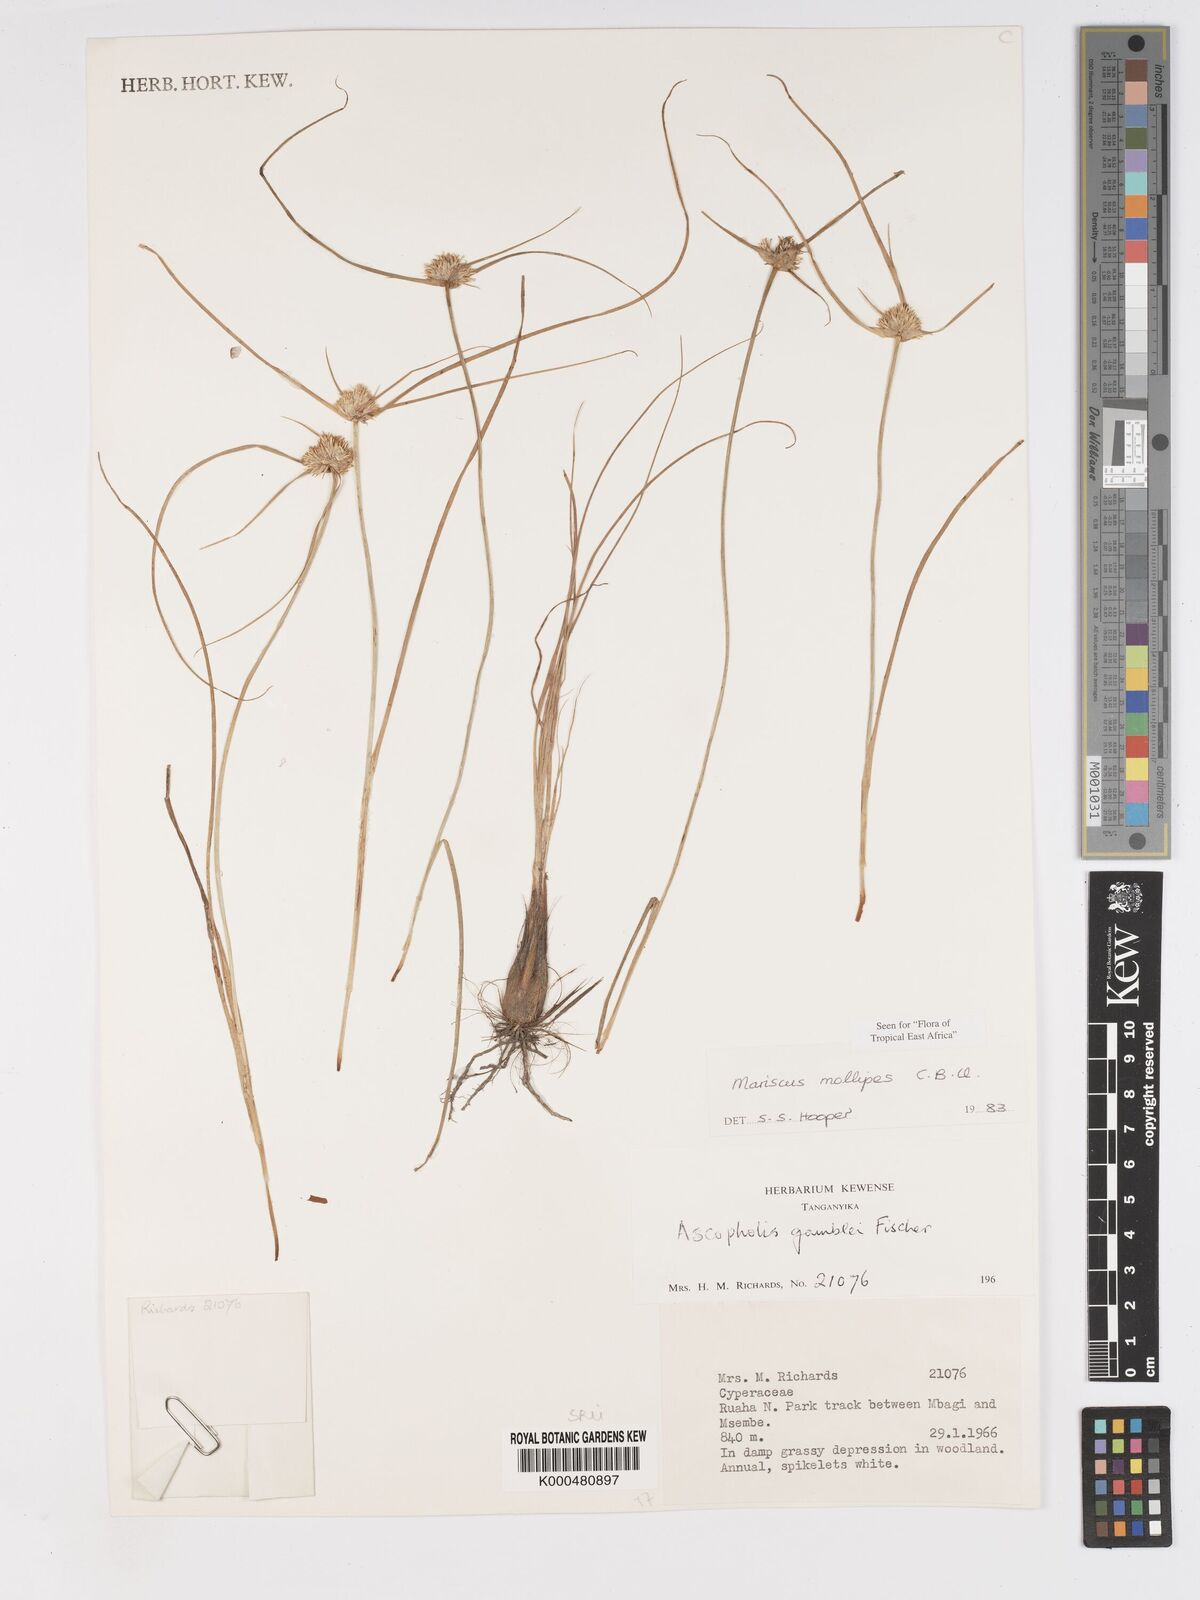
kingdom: Plantae
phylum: Tracheophyta
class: Liliopsida
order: Poales
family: Cyperaceae
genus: Cyperus
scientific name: Cyperus mollipes
